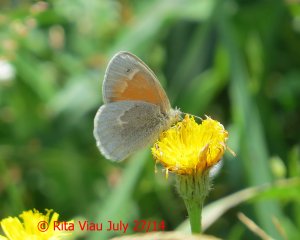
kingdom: Animalia
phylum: Arthropoda
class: Insecta
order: Lepidoptera
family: Nymphalidae
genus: Coenonympha
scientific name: Coenonympha tullia
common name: Large Heath
